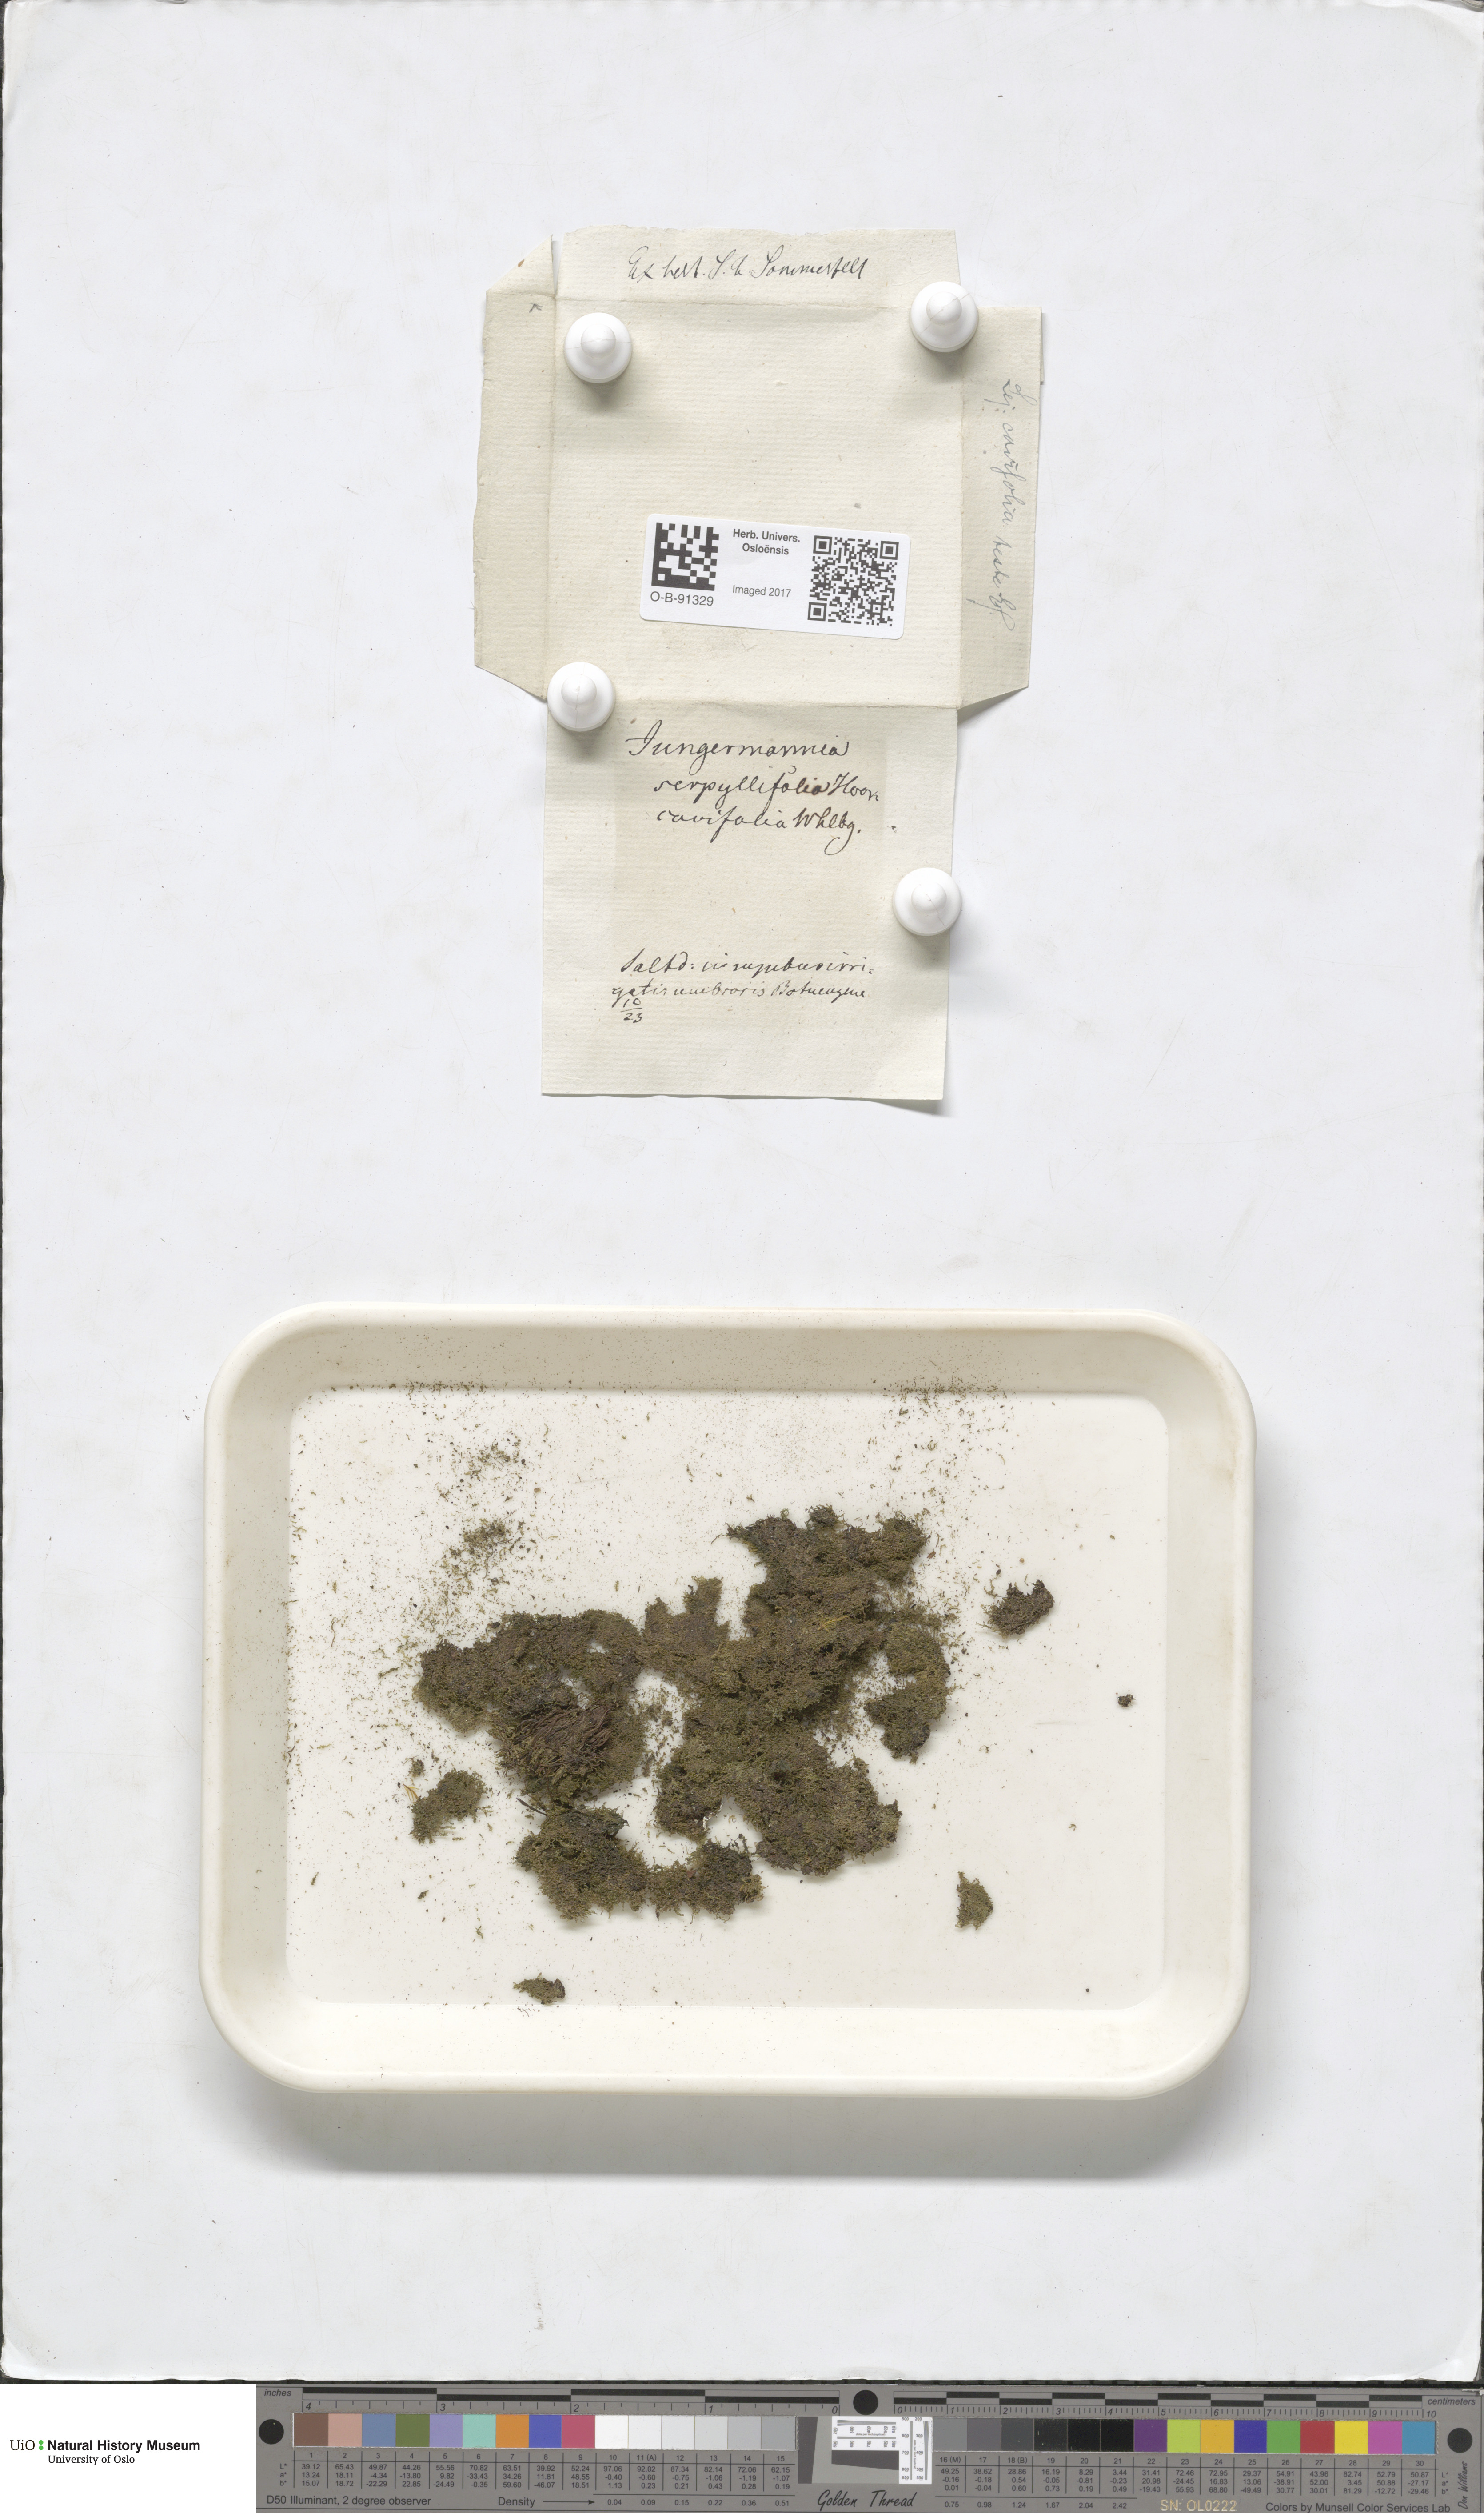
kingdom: Plantae
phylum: Marchantiophyta
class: Jungermanniopsida
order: Porellales
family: Lejeuneaceae
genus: Lejeunea
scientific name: Lejeunea cavifolia
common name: Least pouncewort
